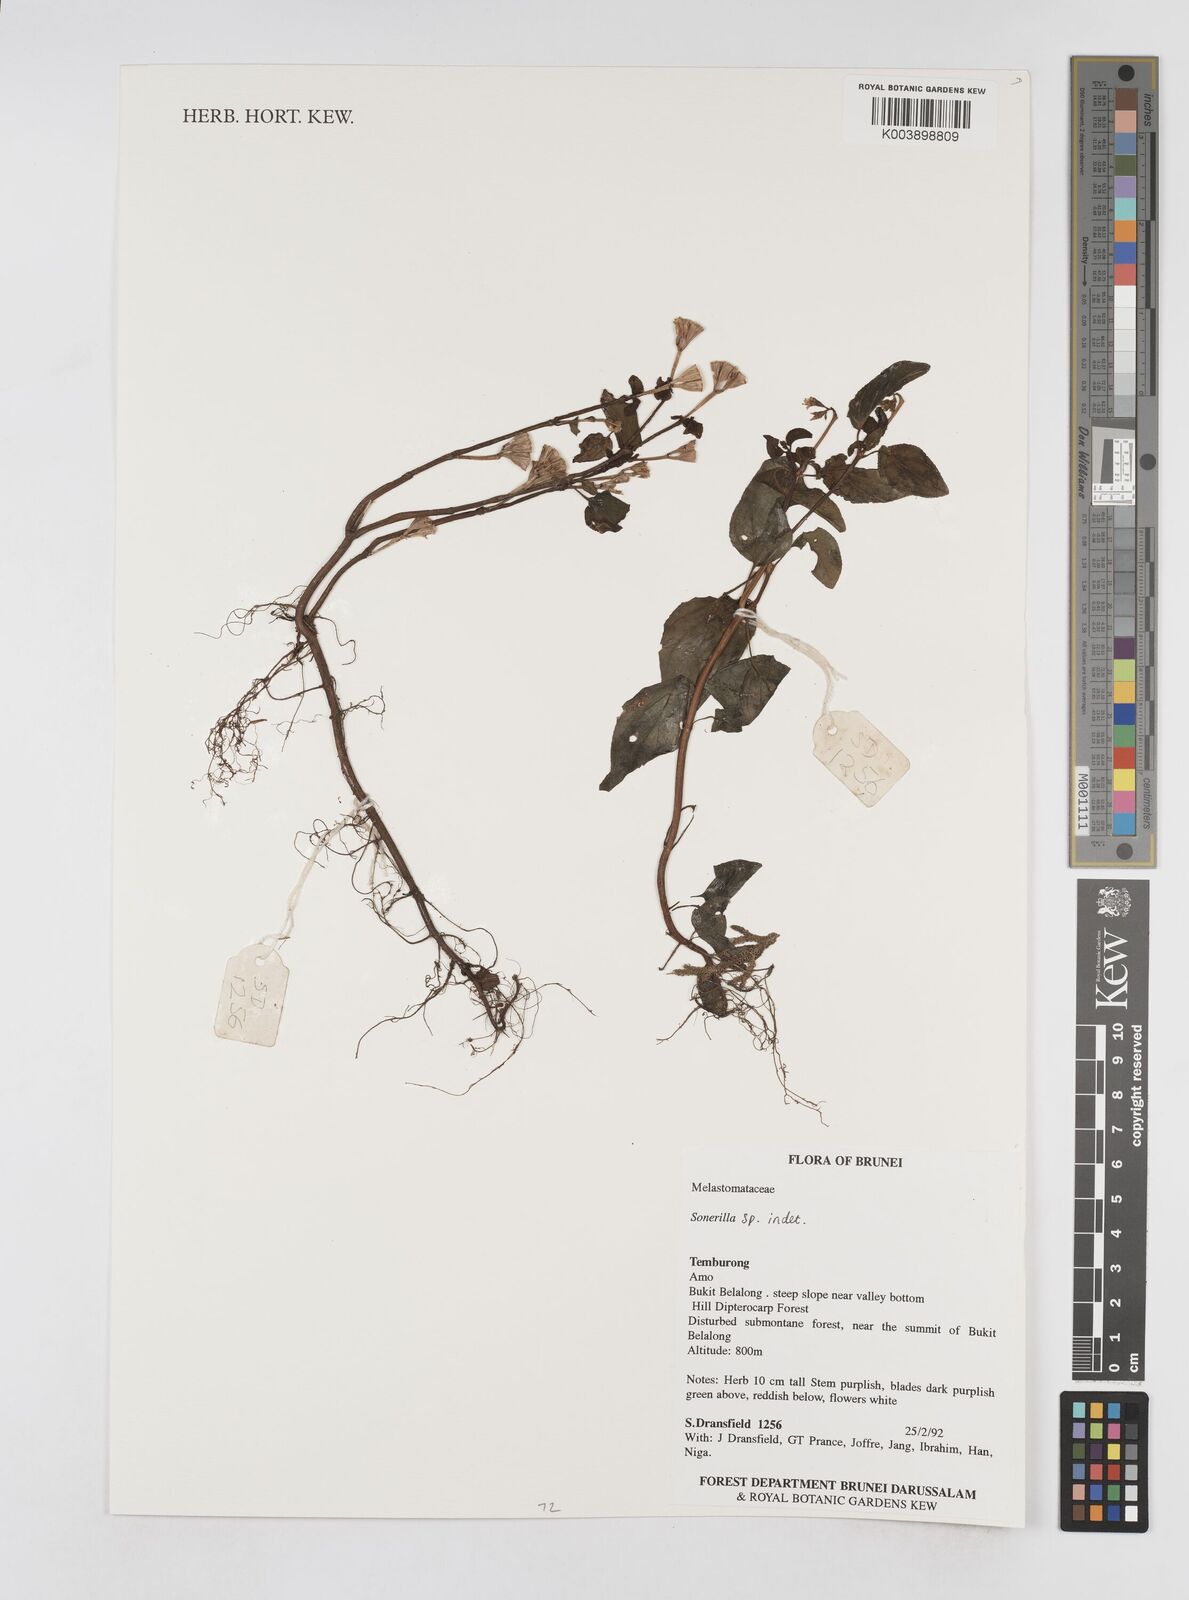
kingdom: Plantae
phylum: Tracheophyta
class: Magnoliopsida
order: Myrtales
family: Melastomataceae
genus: Sonerila
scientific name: Sonerila
